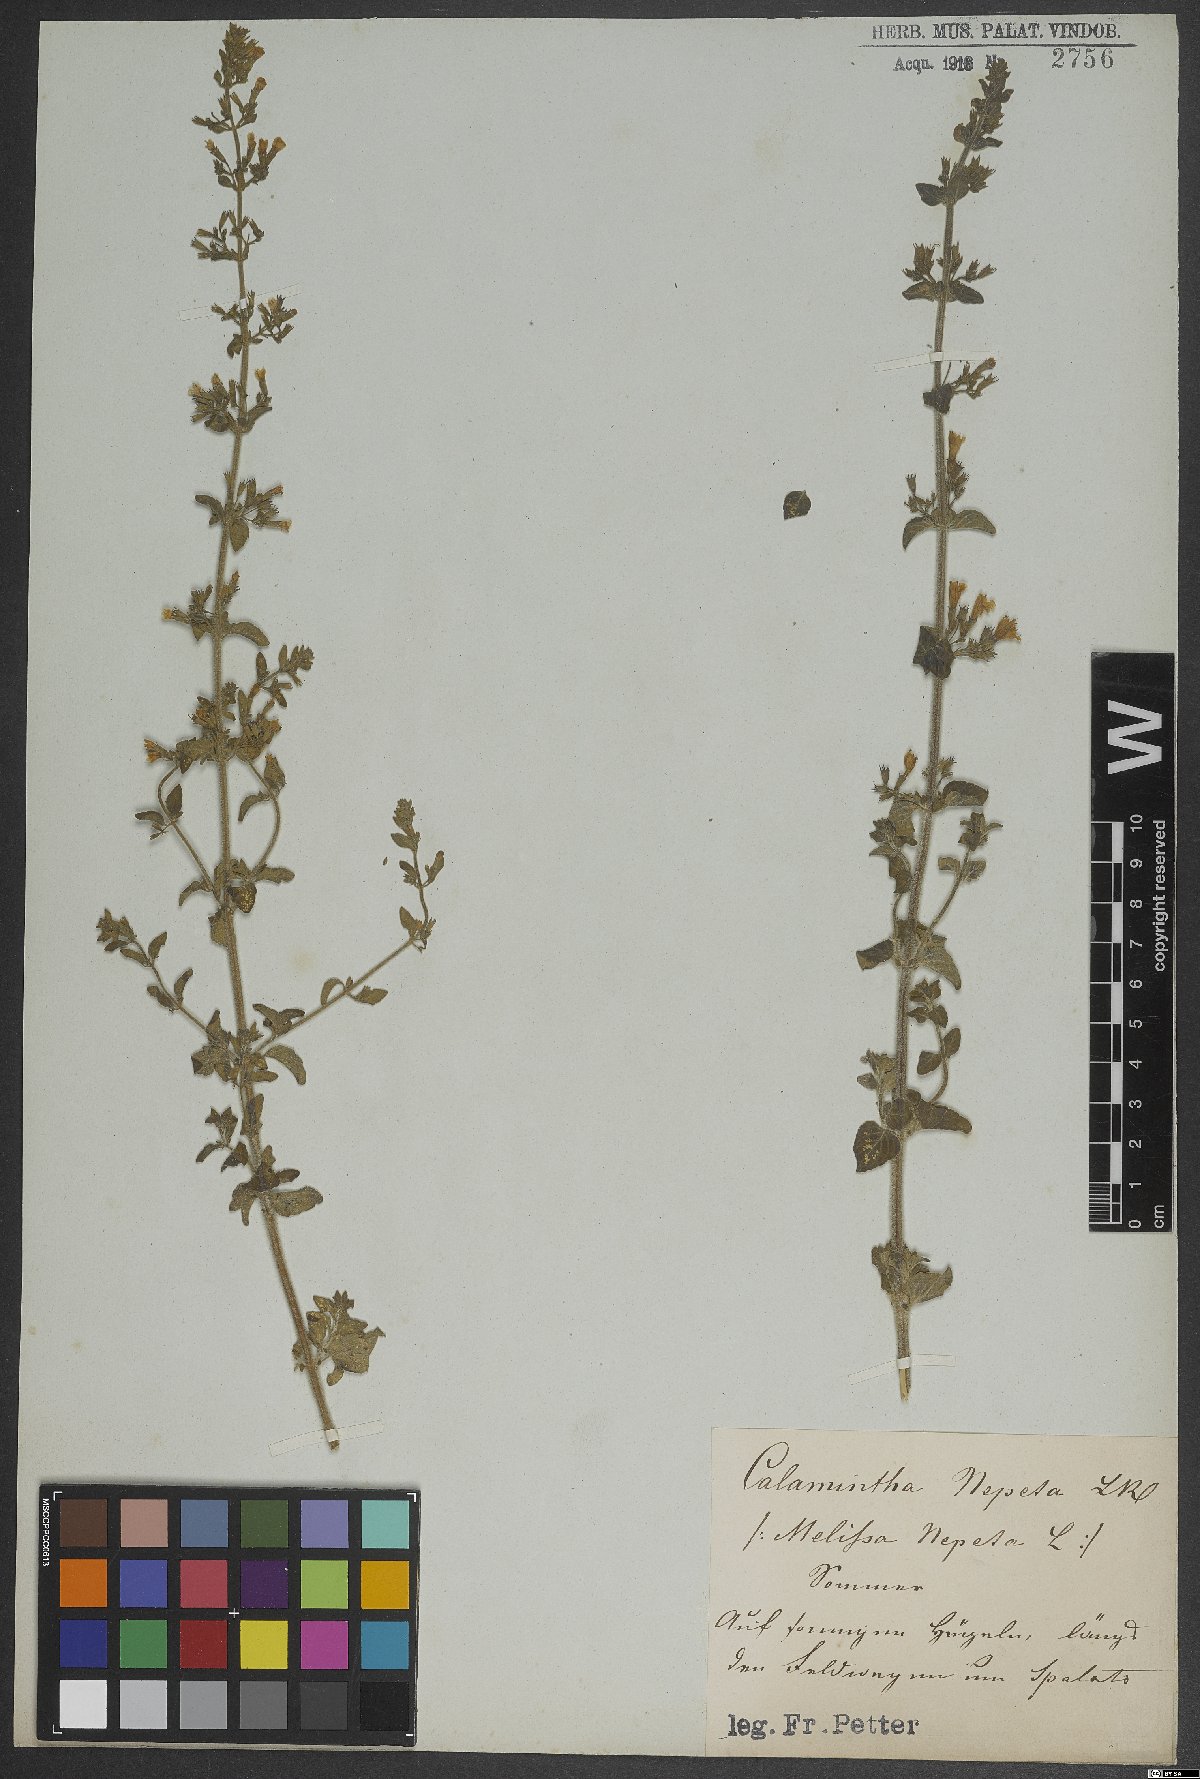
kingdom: Plantae
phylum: Tracheophyta
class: Magnoliopsida
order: Lamiales
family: Lamiaceae
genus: Clinopodium
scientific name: Clinopodium nepeta
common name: Lesser calamint
